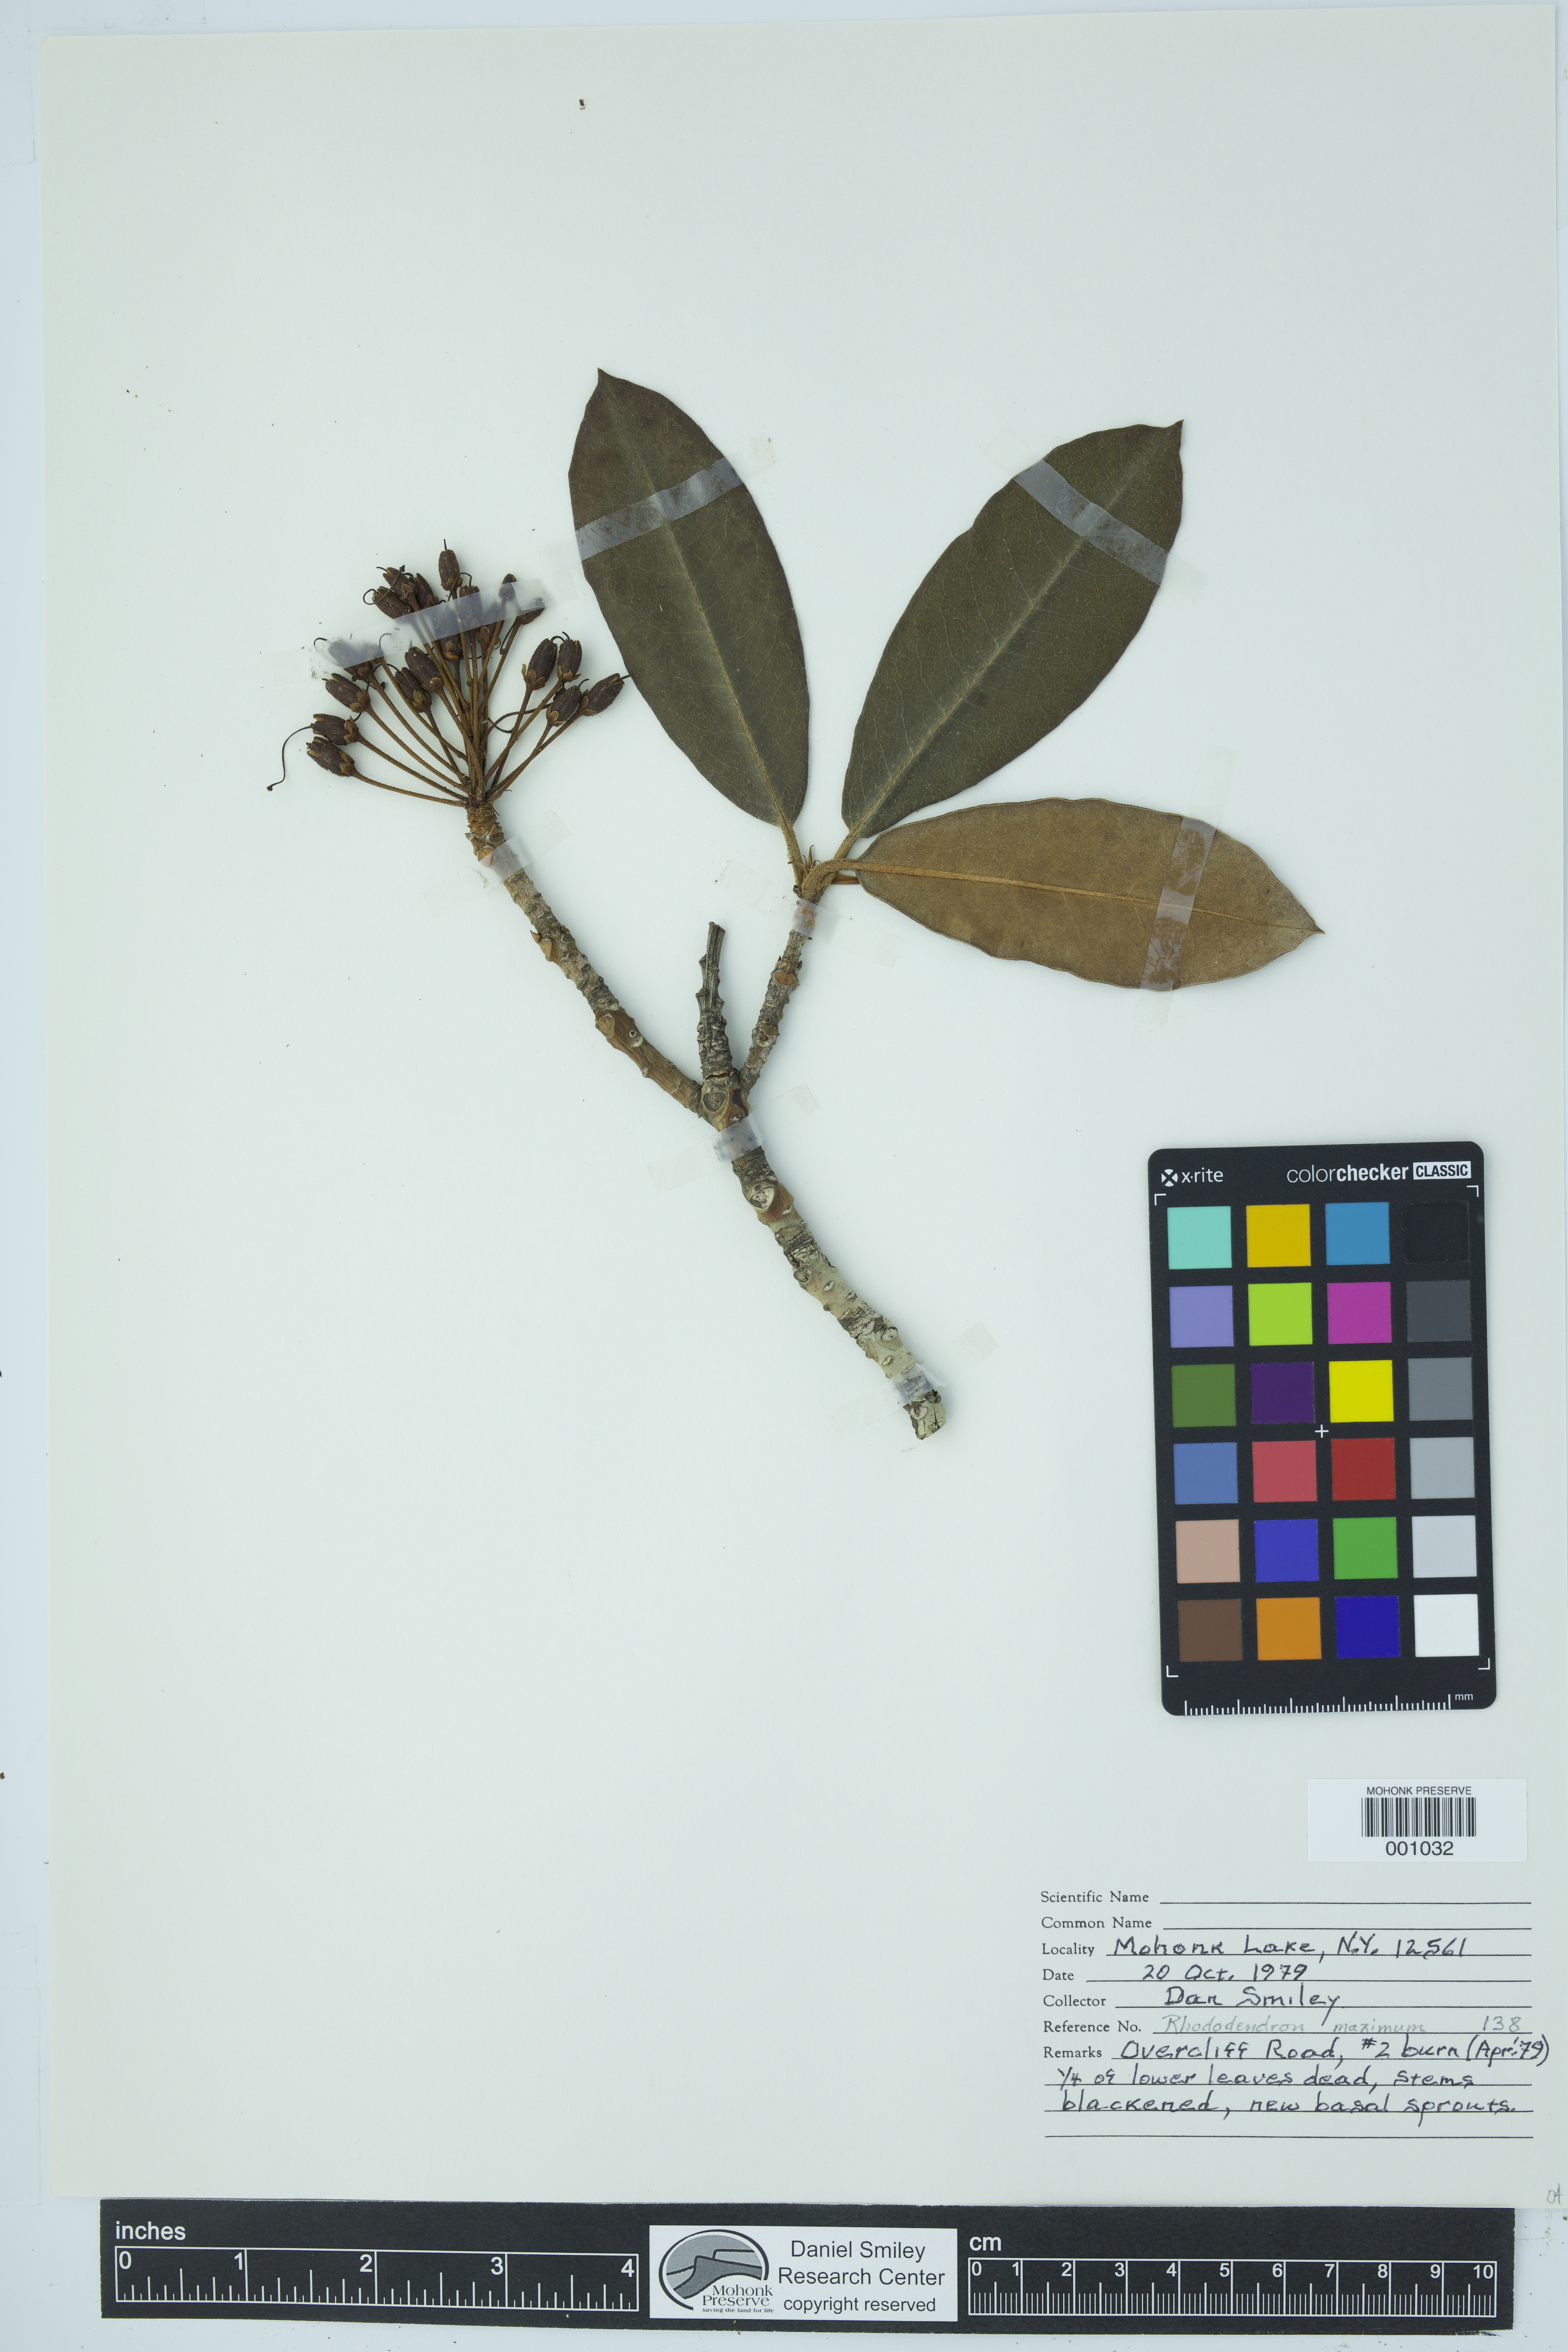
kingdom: Plantae
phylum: Tracheophyta
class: Magnoliopsida
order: Ericales
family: Ericaceae
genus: Rhododendron
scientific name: Rhododendron maximum
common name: Great rhododendron
